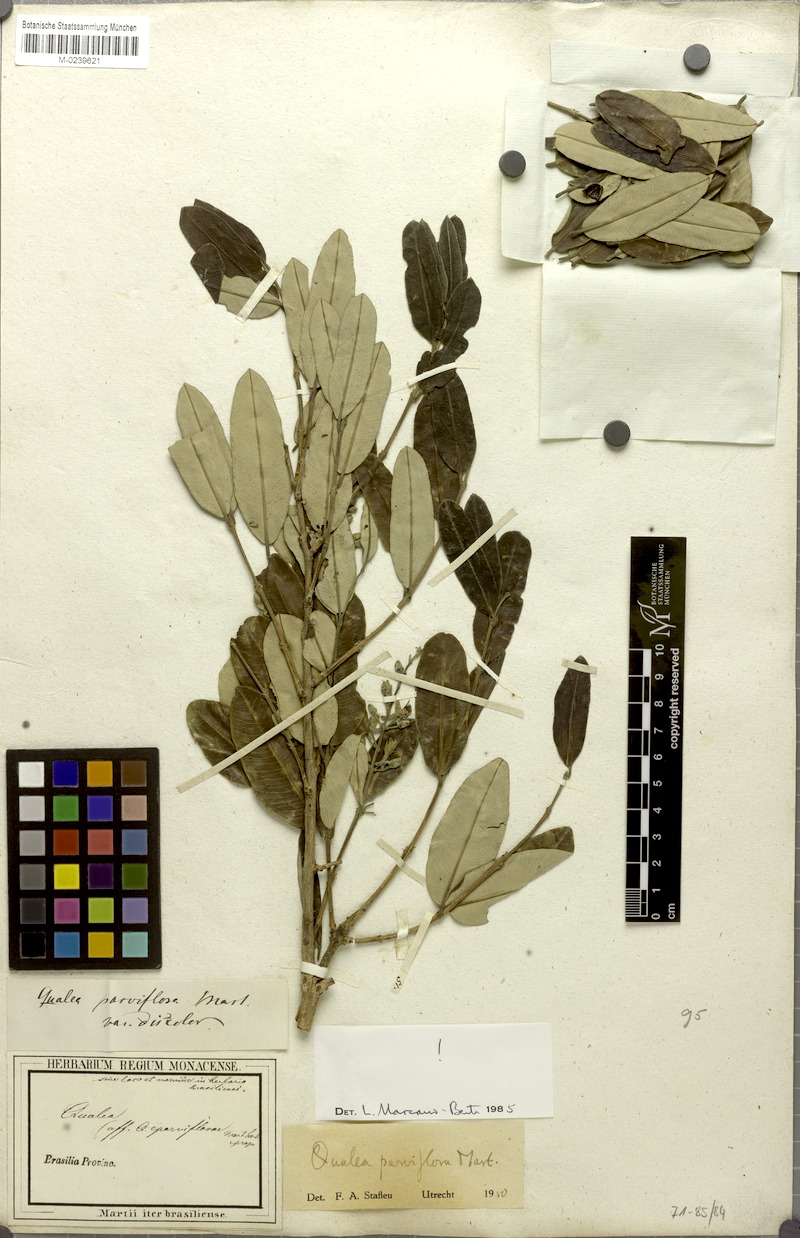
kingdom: Plantae
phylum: Tracheophyta
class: Magnoliopsida
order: Myrtales
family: Vochysiaceae
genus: Qualea
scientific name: Qualea parviflora
